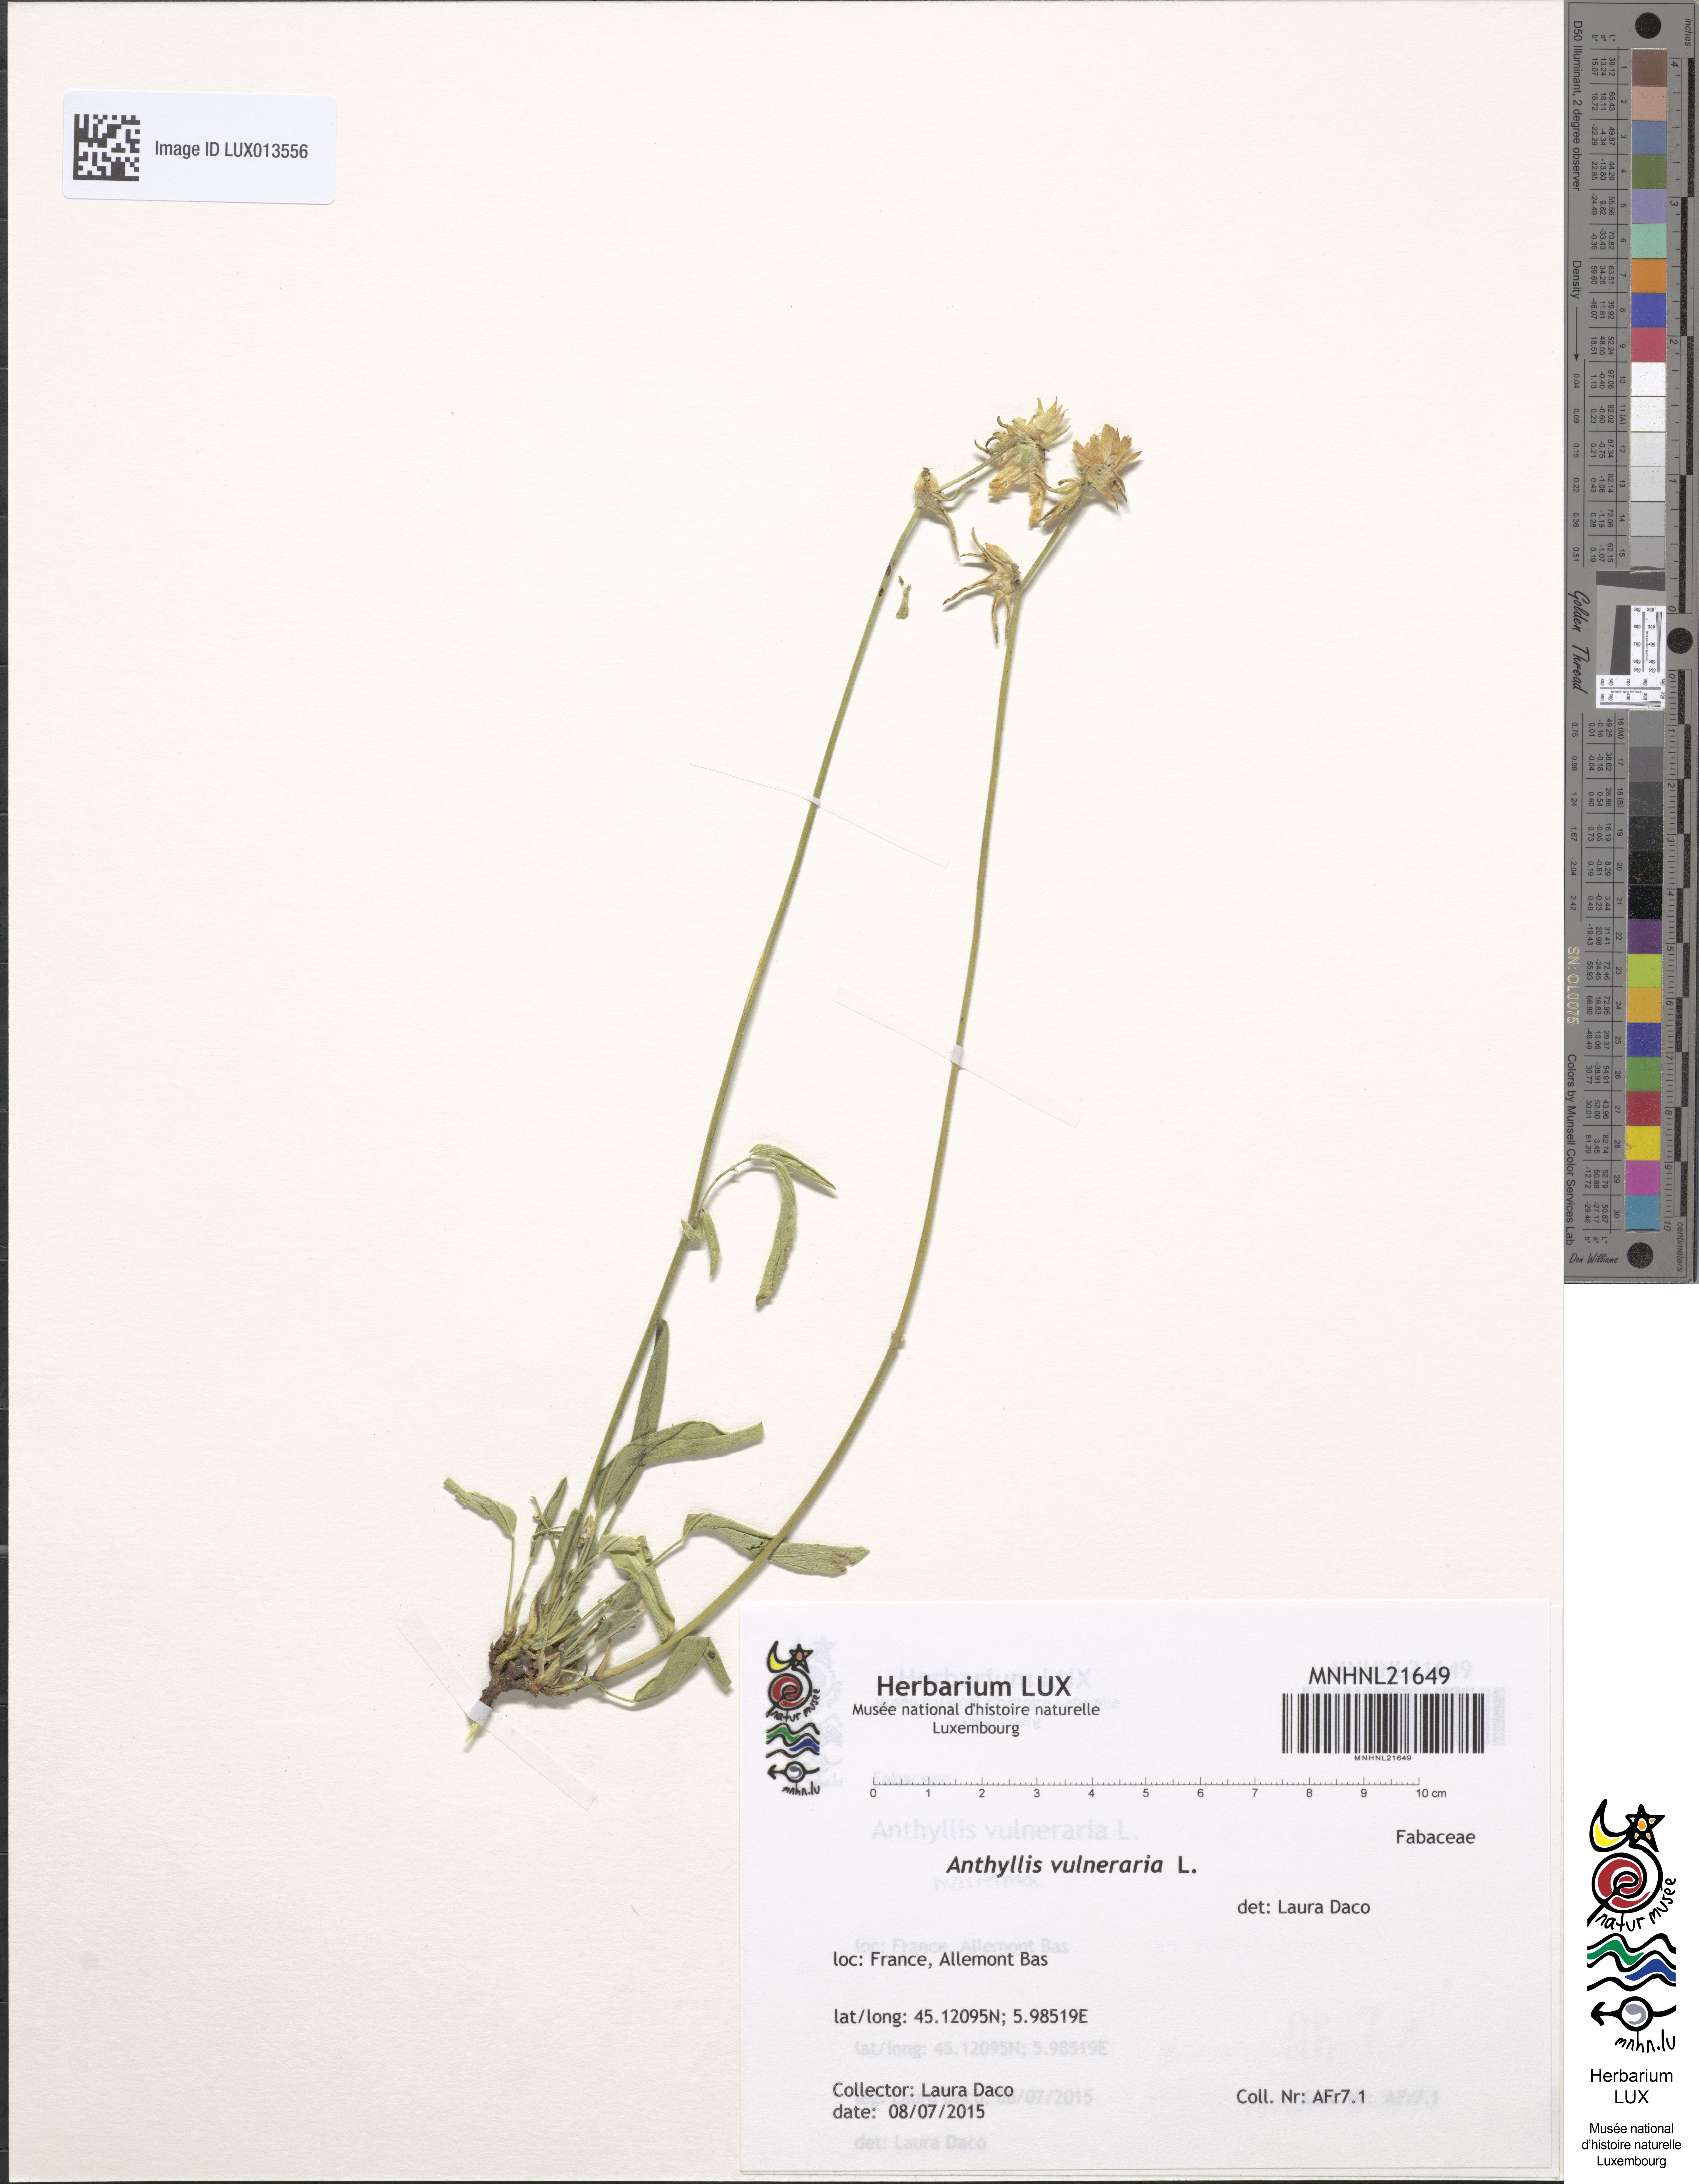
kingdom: Plantae
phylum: Tracheophyta
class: Magnoliopsida
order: Fabales
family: Fabaceae
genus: Anthyllis
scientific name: Anthyllis vulneraria
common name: Kidney vetch
